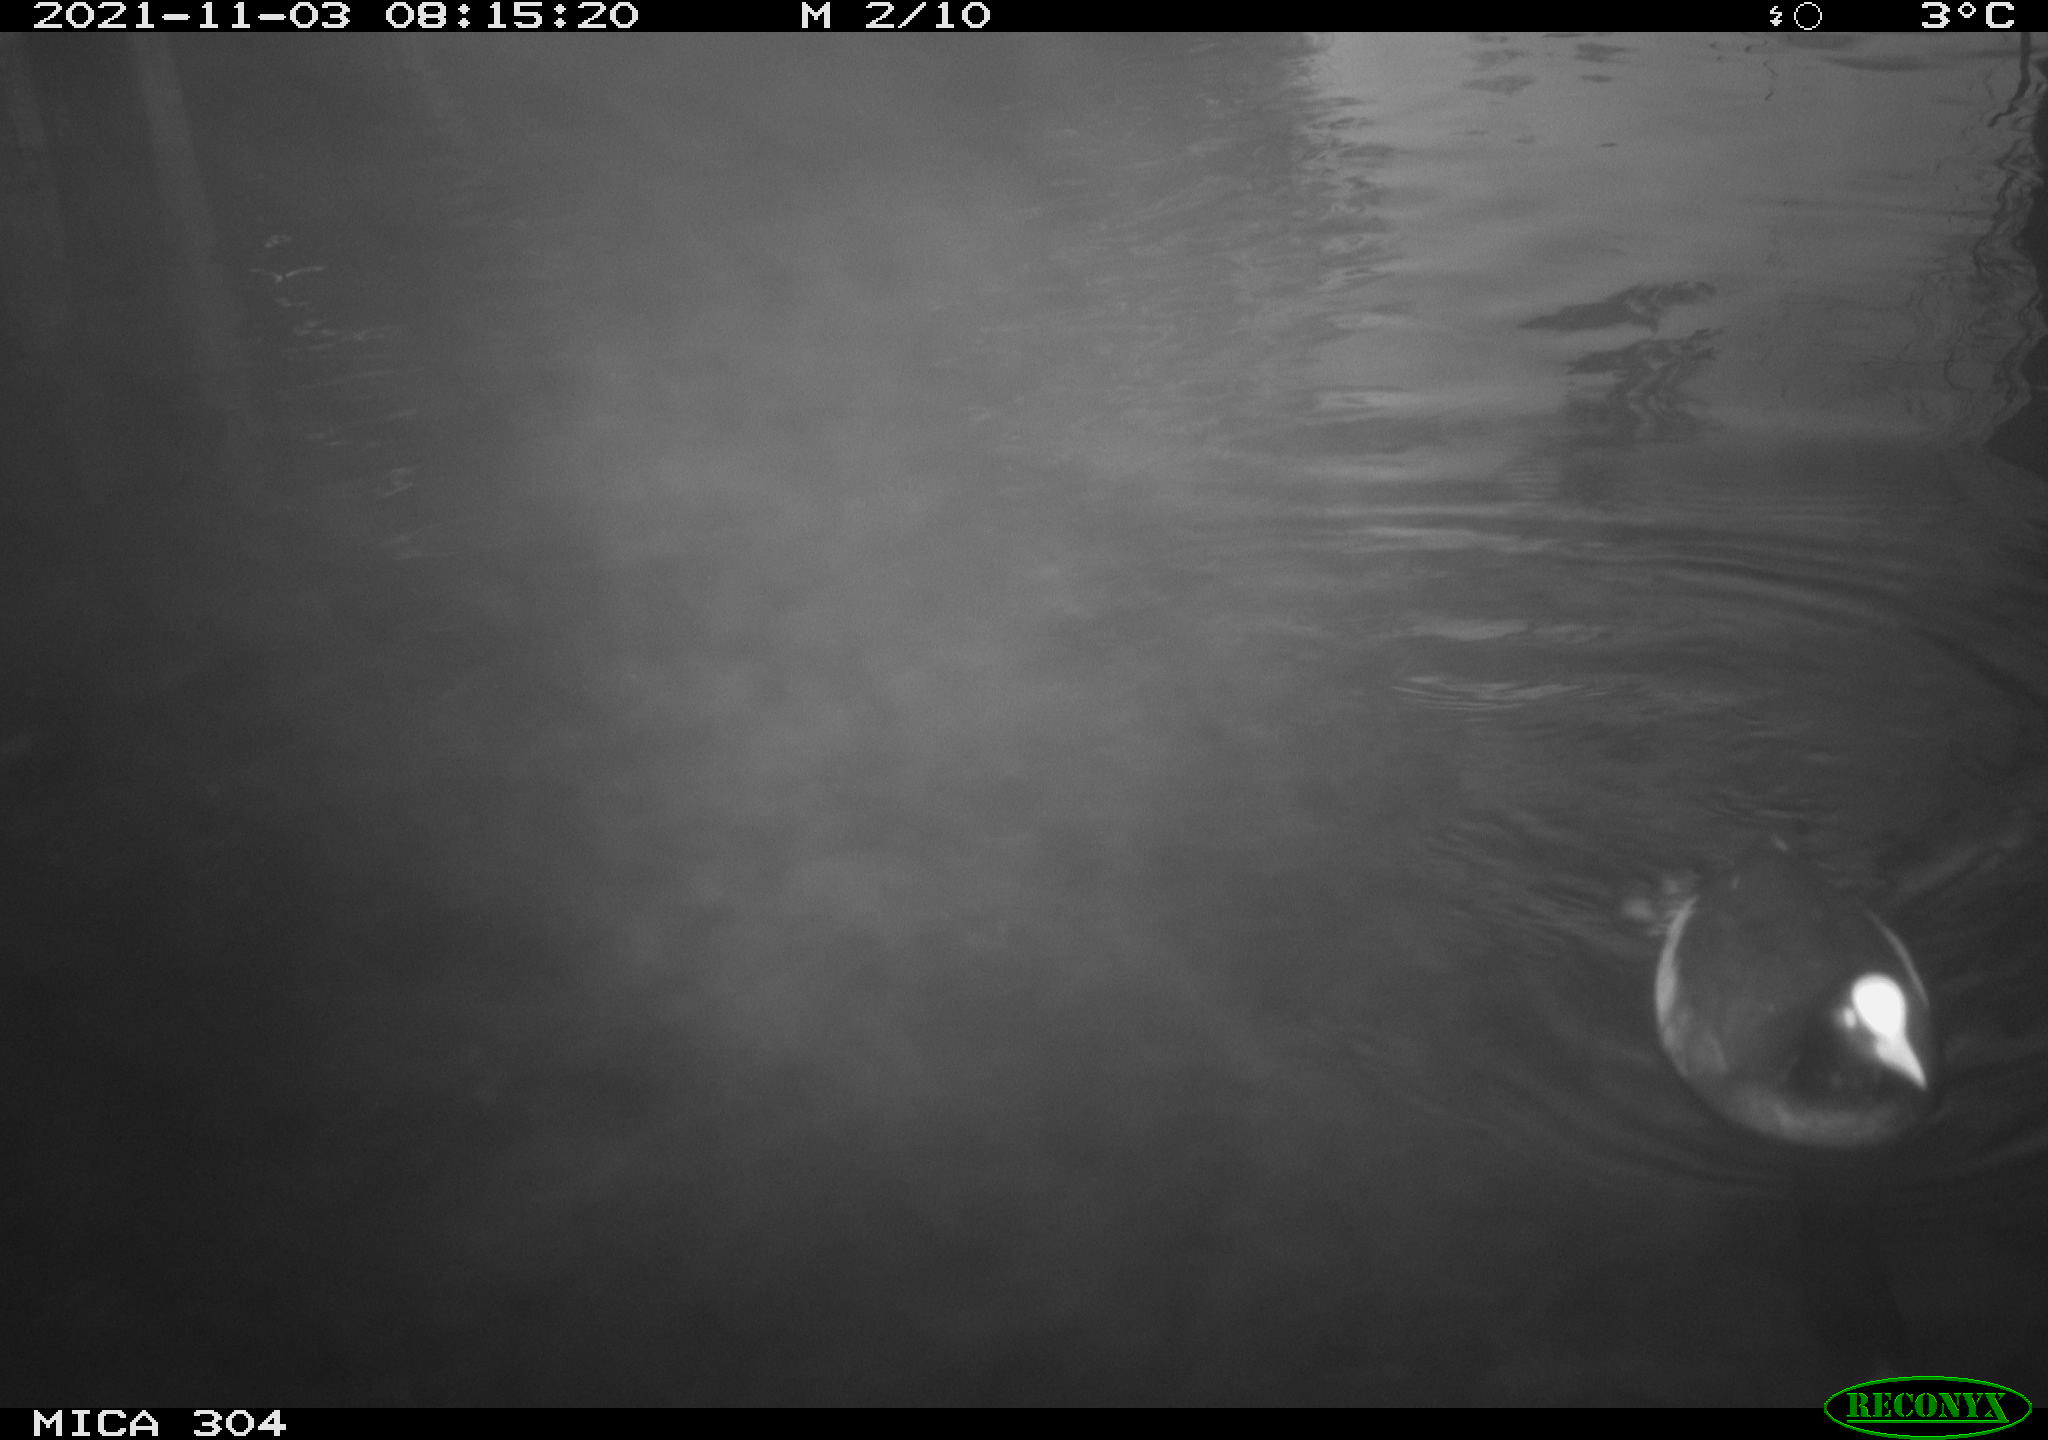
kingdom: Animalia
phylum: Chordata
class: Aves
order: Gruiformes
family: Rallidae
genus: Fulica
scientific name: Fulica atra
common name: Eurasian coot
